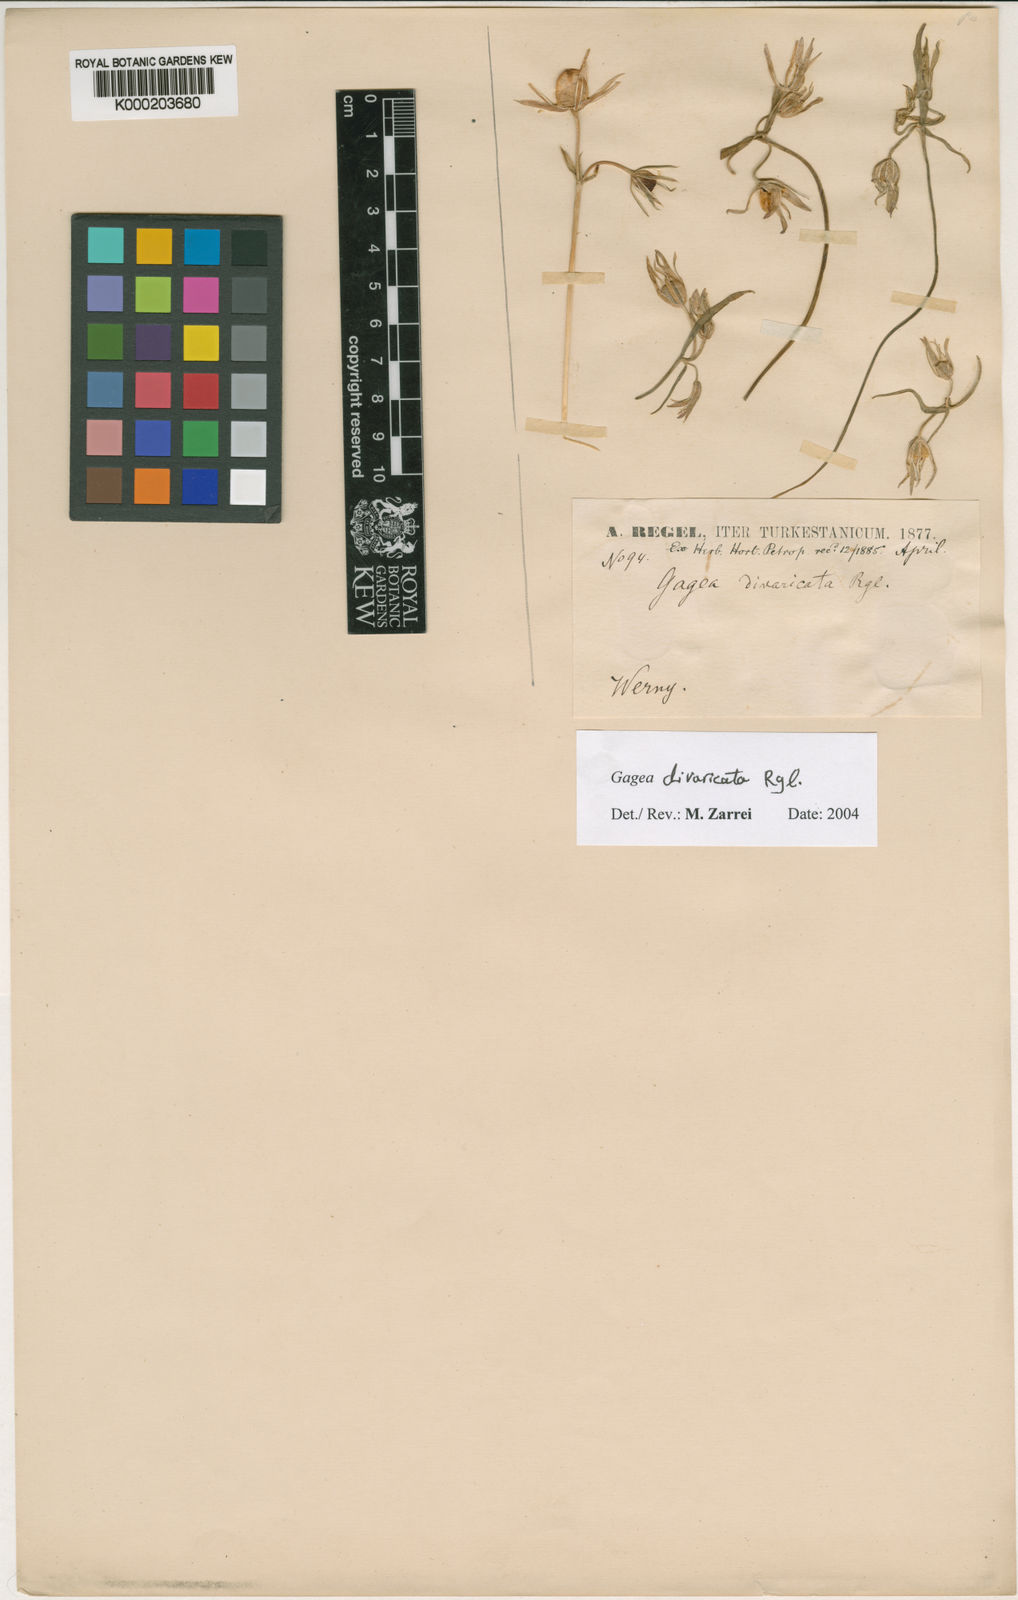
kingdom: Plantae
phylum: Tracheophyta
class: Liliopsida
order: Liliales
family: Liliaceae
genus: Gagea
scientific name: Gagea divaricata
